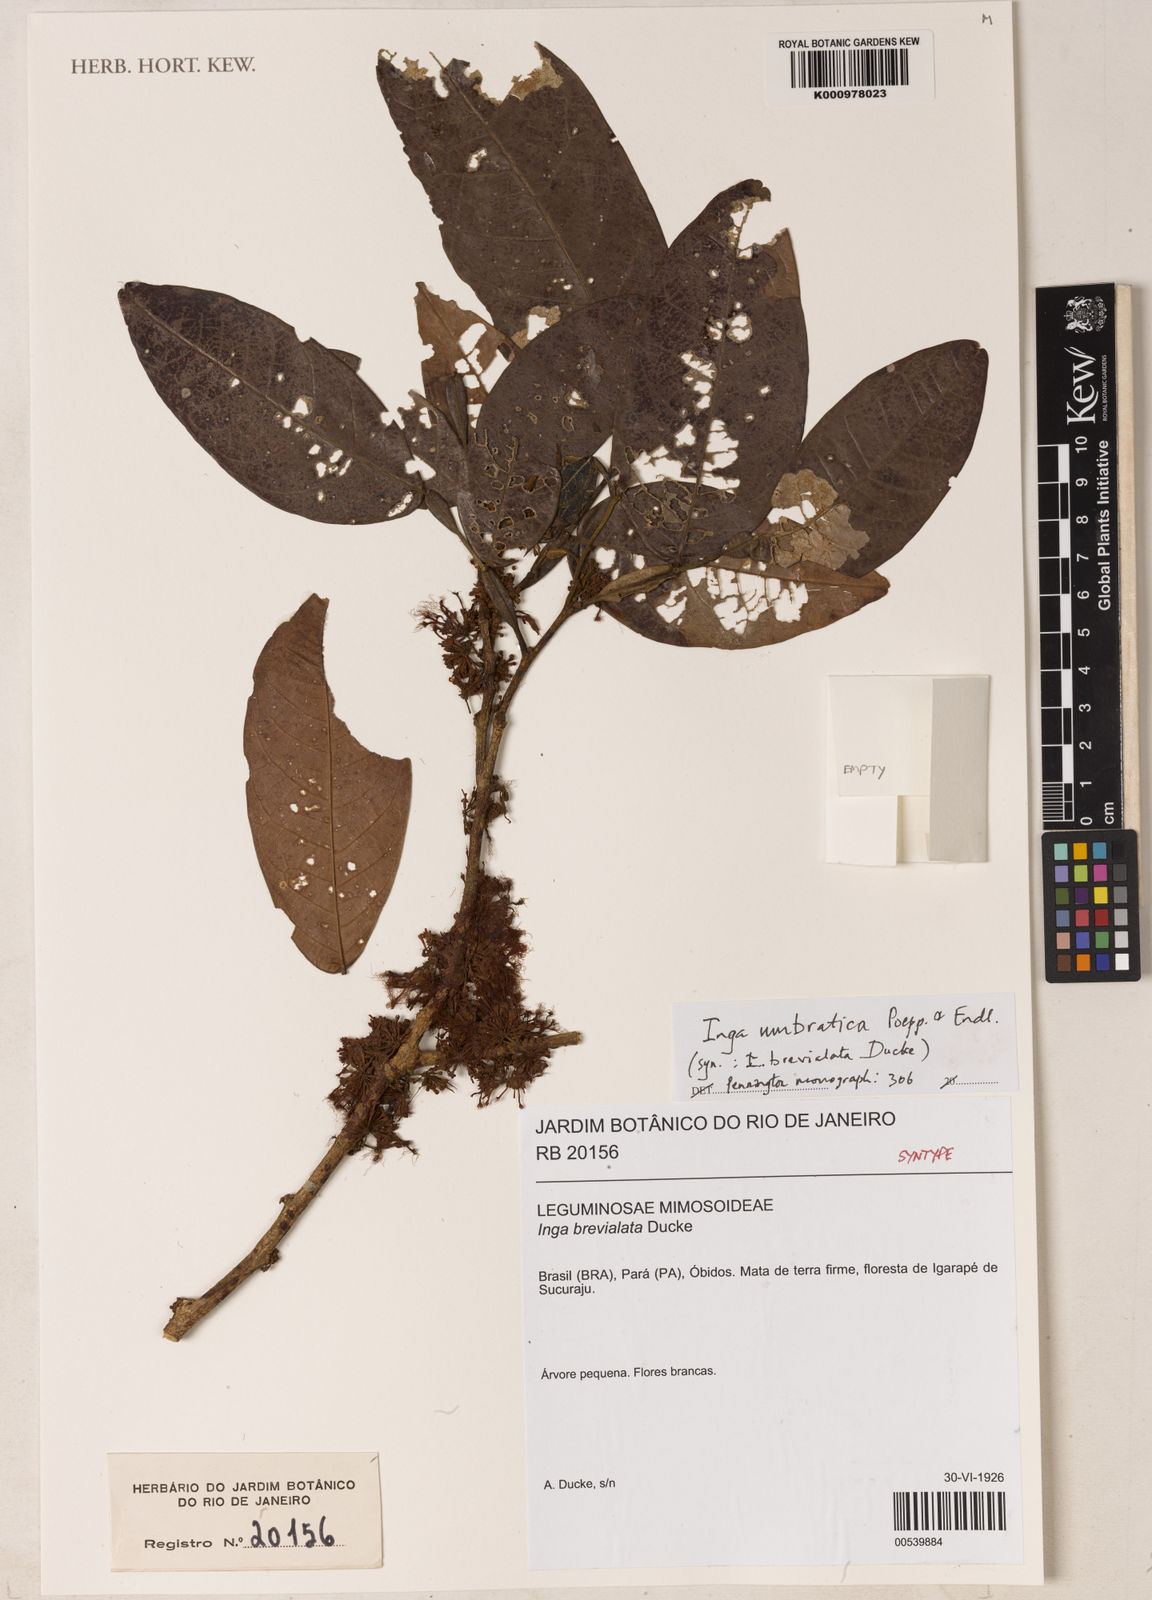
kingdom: Plantae
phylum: Tracheophyta
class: Magnoliopsida
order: Fabales
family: Fabaceae
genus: Inga
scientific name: Inga umbratica
